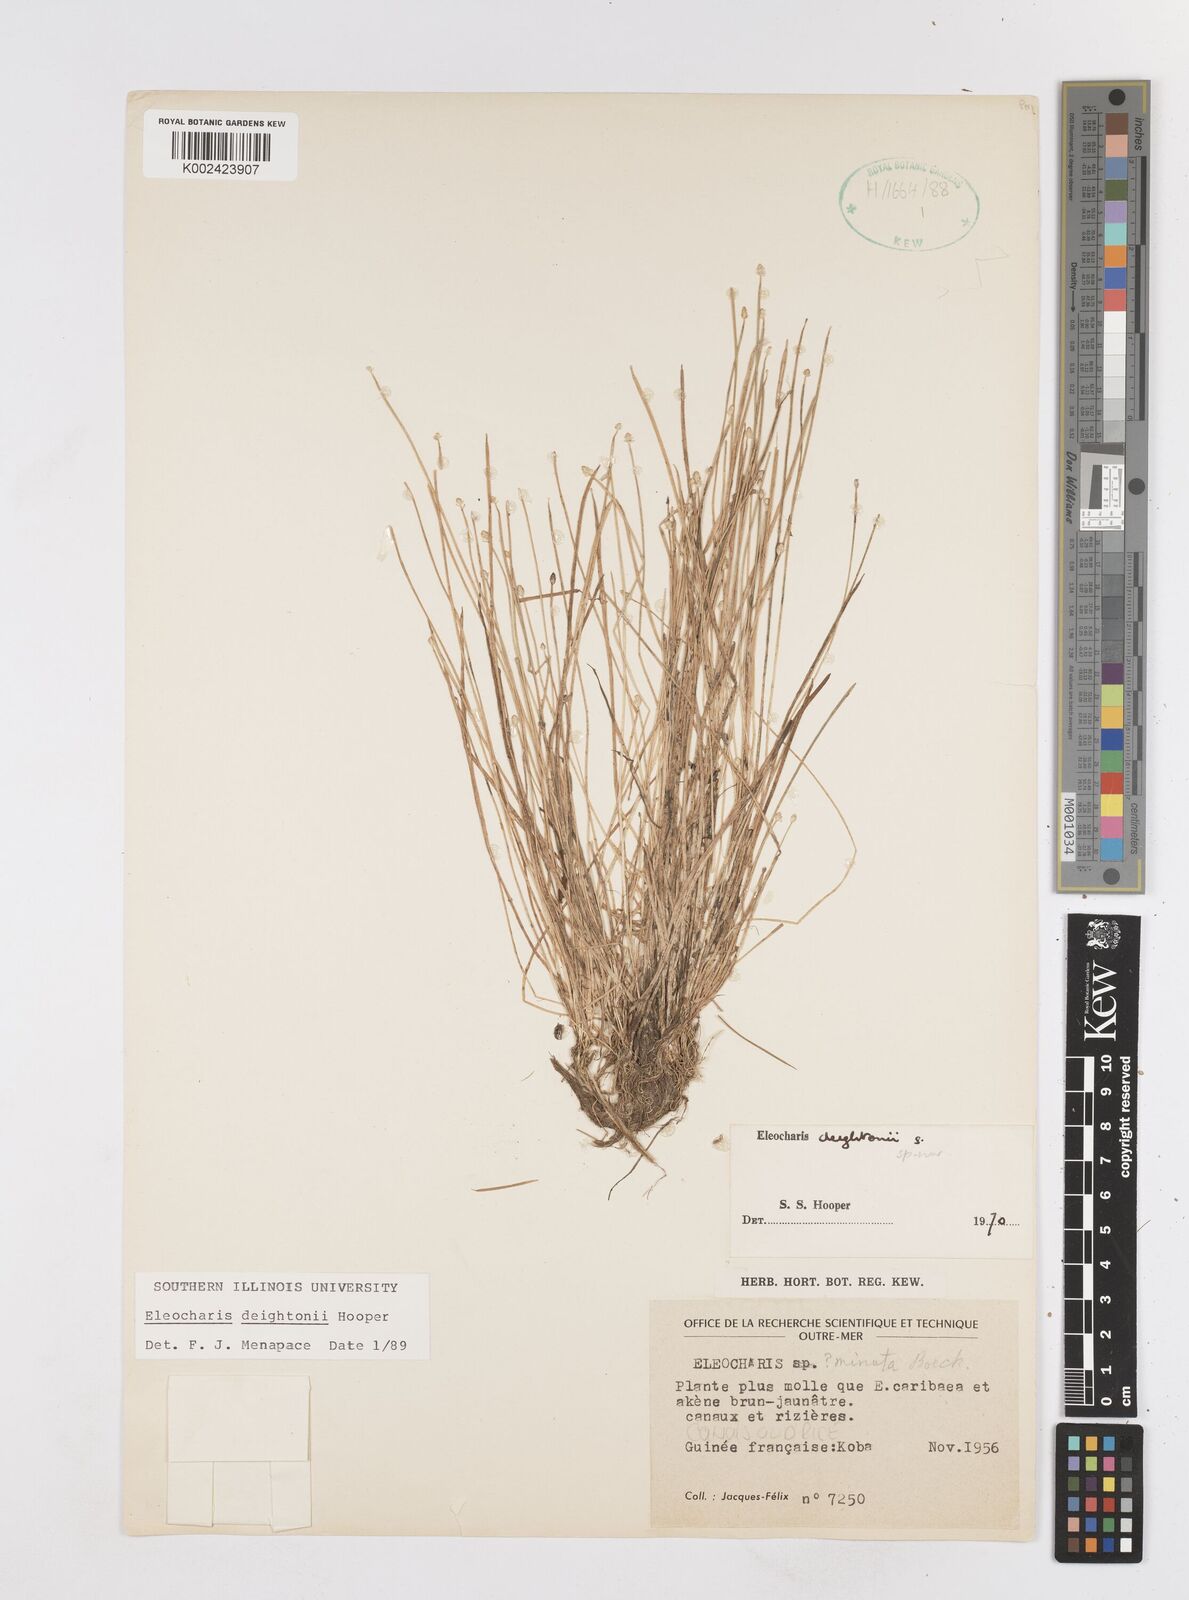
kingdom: Plantae
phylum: Tracheophyta
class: Liliopsida
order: Poales
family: Cyperaceae
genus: Eleocharis
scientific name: Eleocharis deightonii
